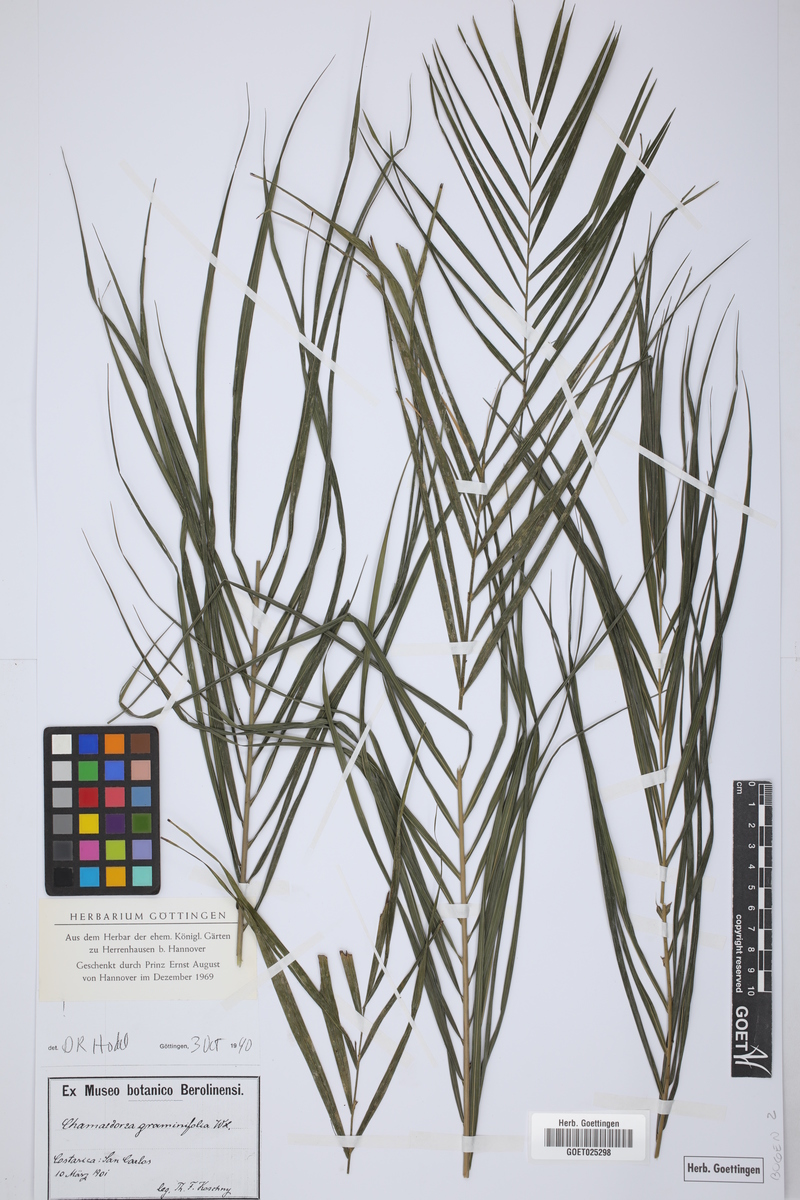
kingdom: Plantae
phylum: Tracheophyta
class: Liliopsida
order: Arecales
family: Arecaceae
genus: Chamaedorea
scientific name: Chamaedorea graminifolia
